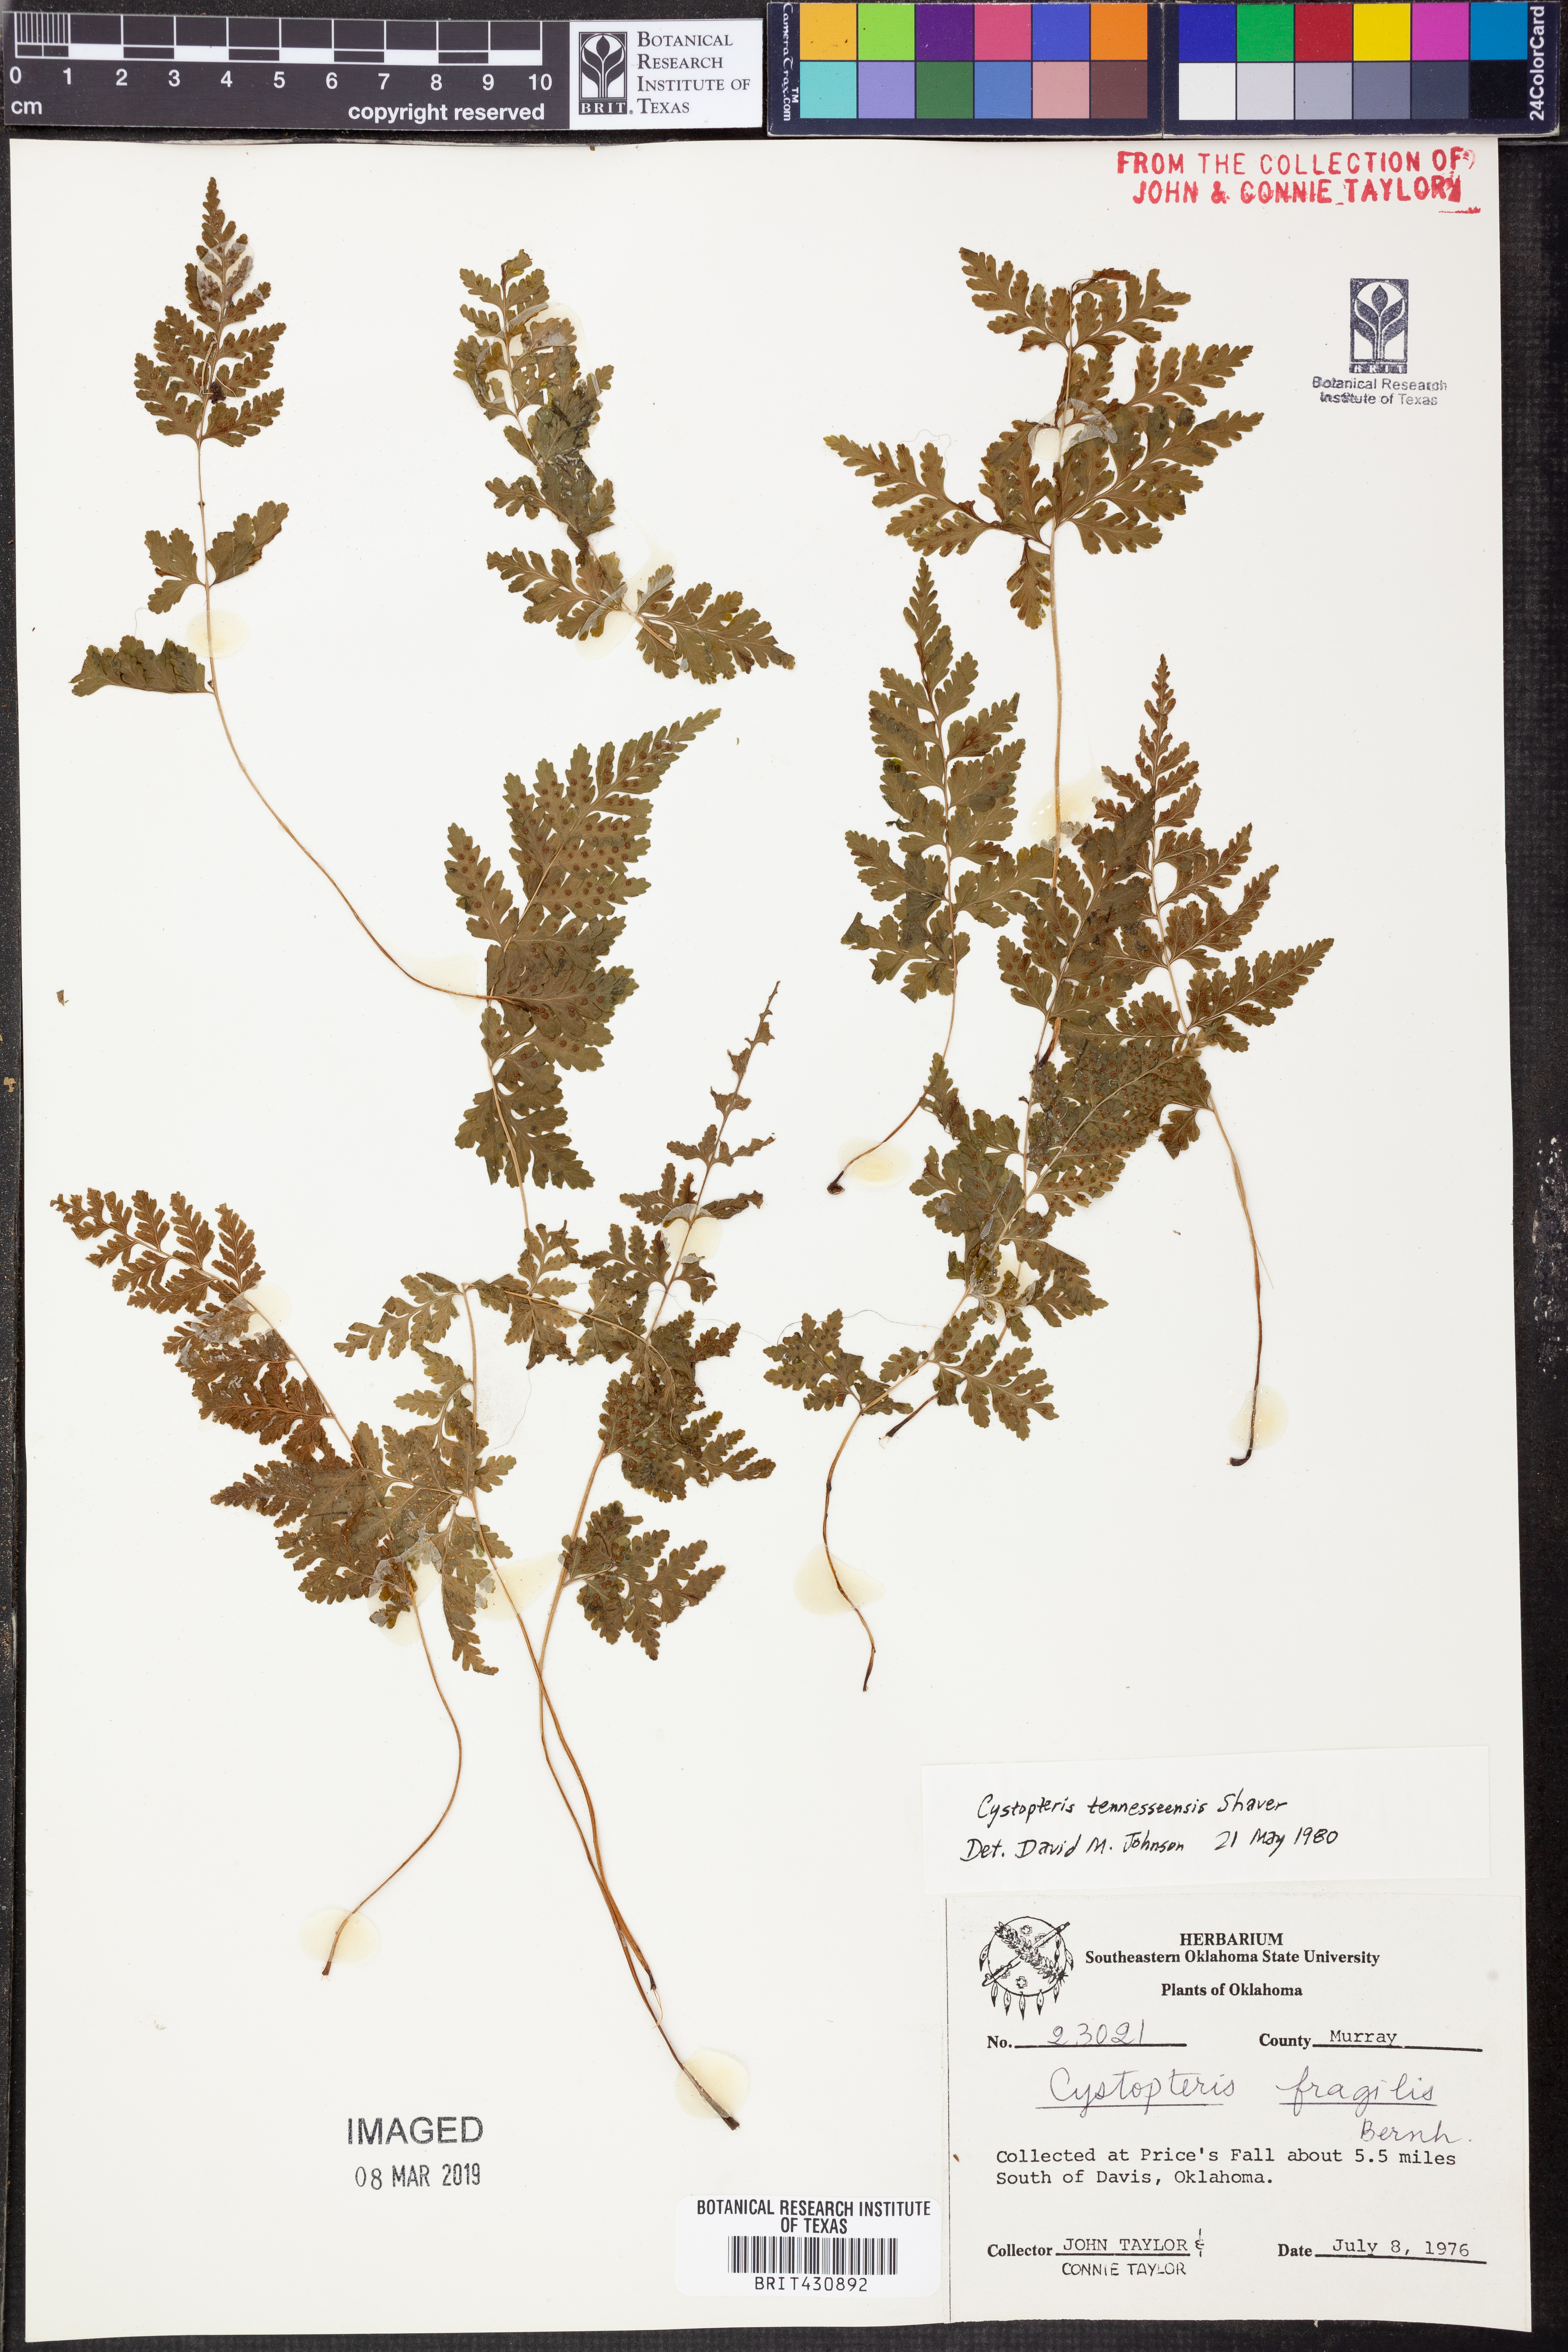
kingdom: Plantae
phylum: Tracheophyta
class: Polypodiopsida
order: Polypodiales
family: Cystopteridaceae
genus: Cystopteris
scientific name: Cystopteris tennesseensis
